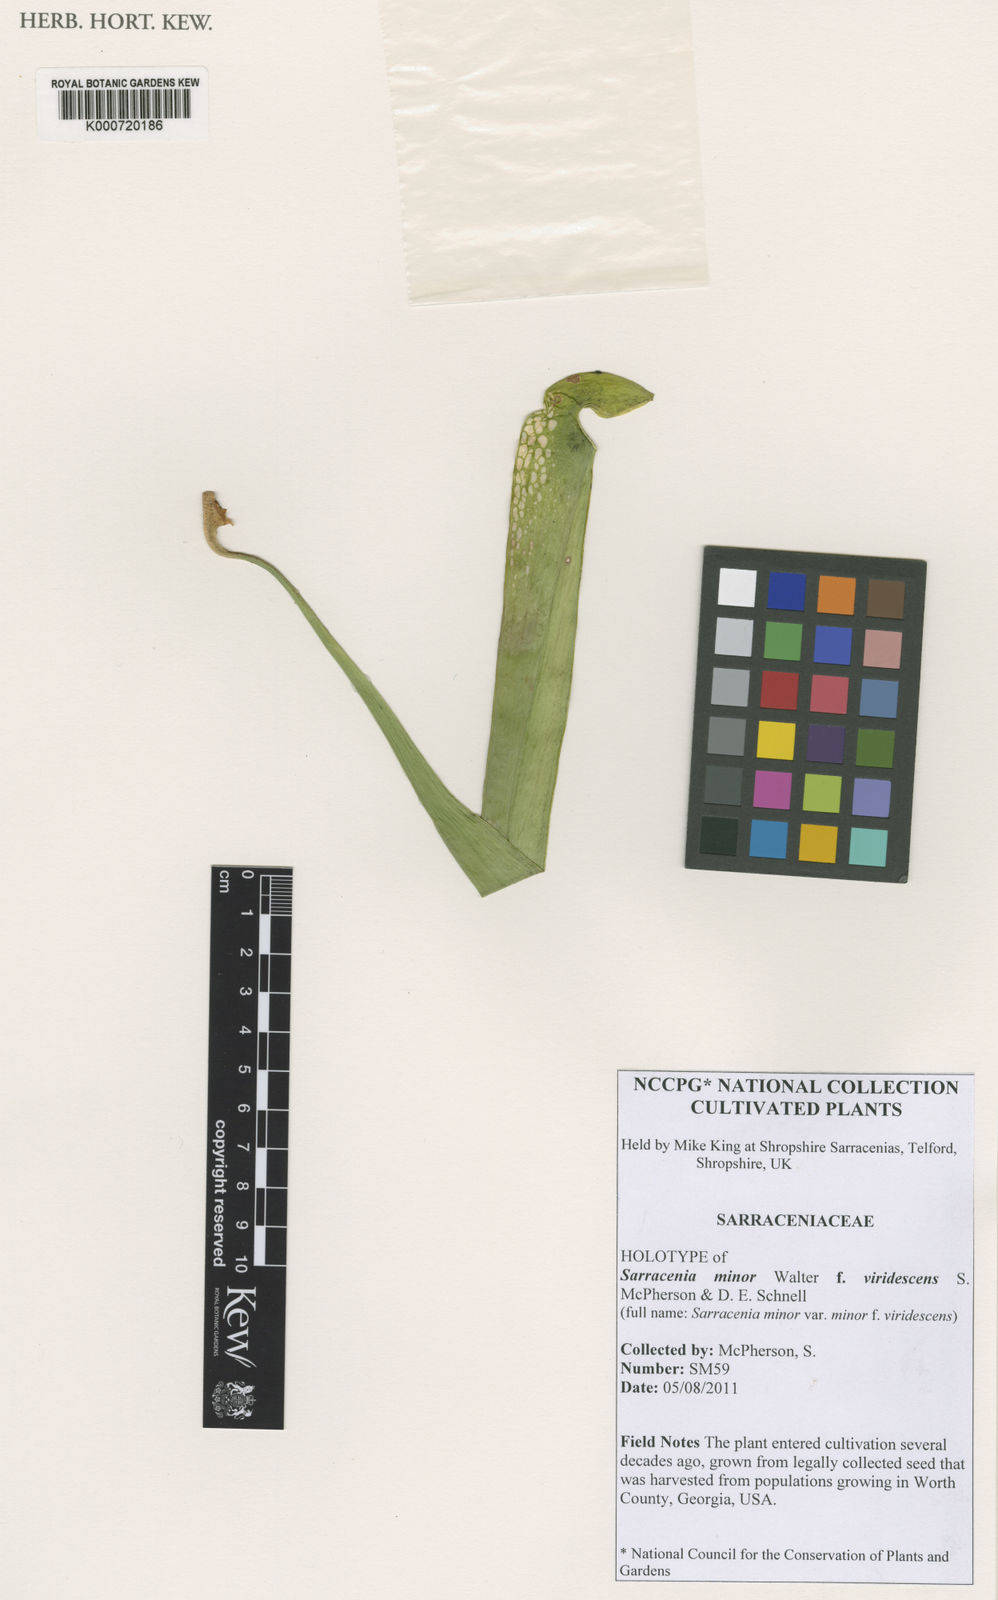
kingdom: Plantae
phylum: Tracheophyta
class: Magnoliopsida
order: Ericales
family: Sarraceniaceae
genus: Sarracenia
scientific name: Sarracenia minor
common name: Rainhat-trumpet
